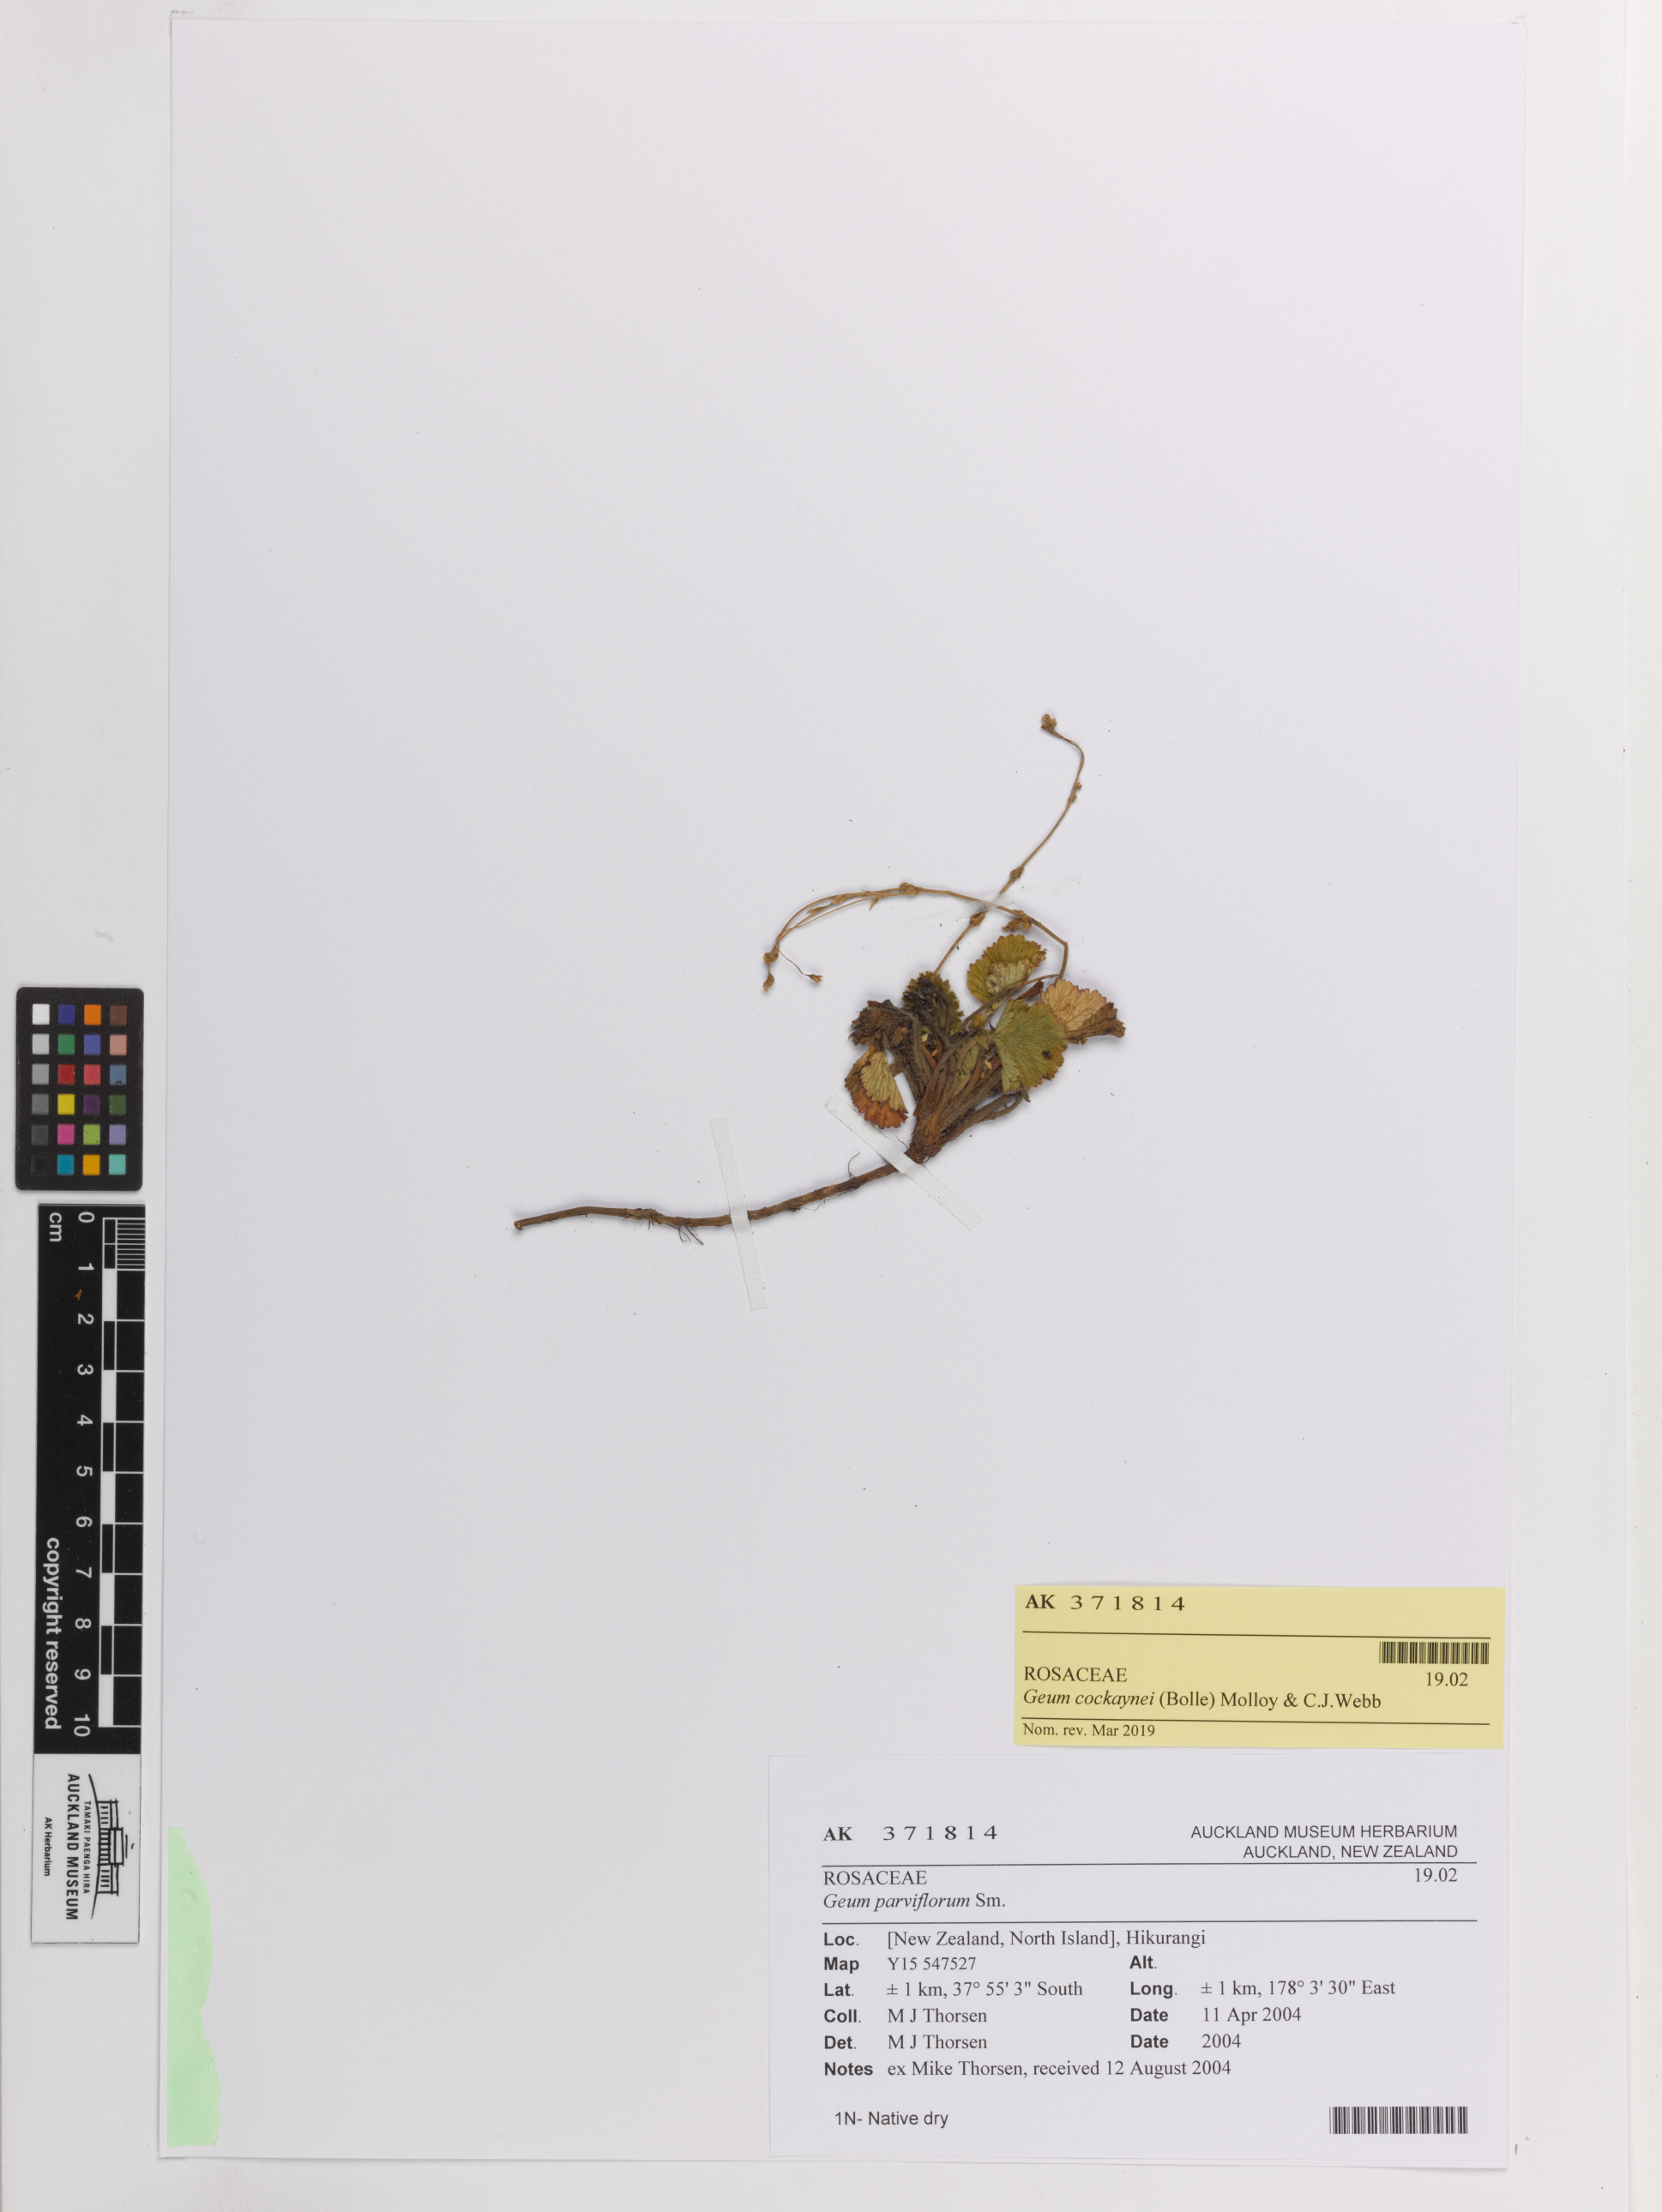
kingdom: Plantae
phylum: Tracheophyta
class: Magnoliopsida
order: Rosales
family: Rosaceae
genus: Geum
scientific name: Geum cockaynei
